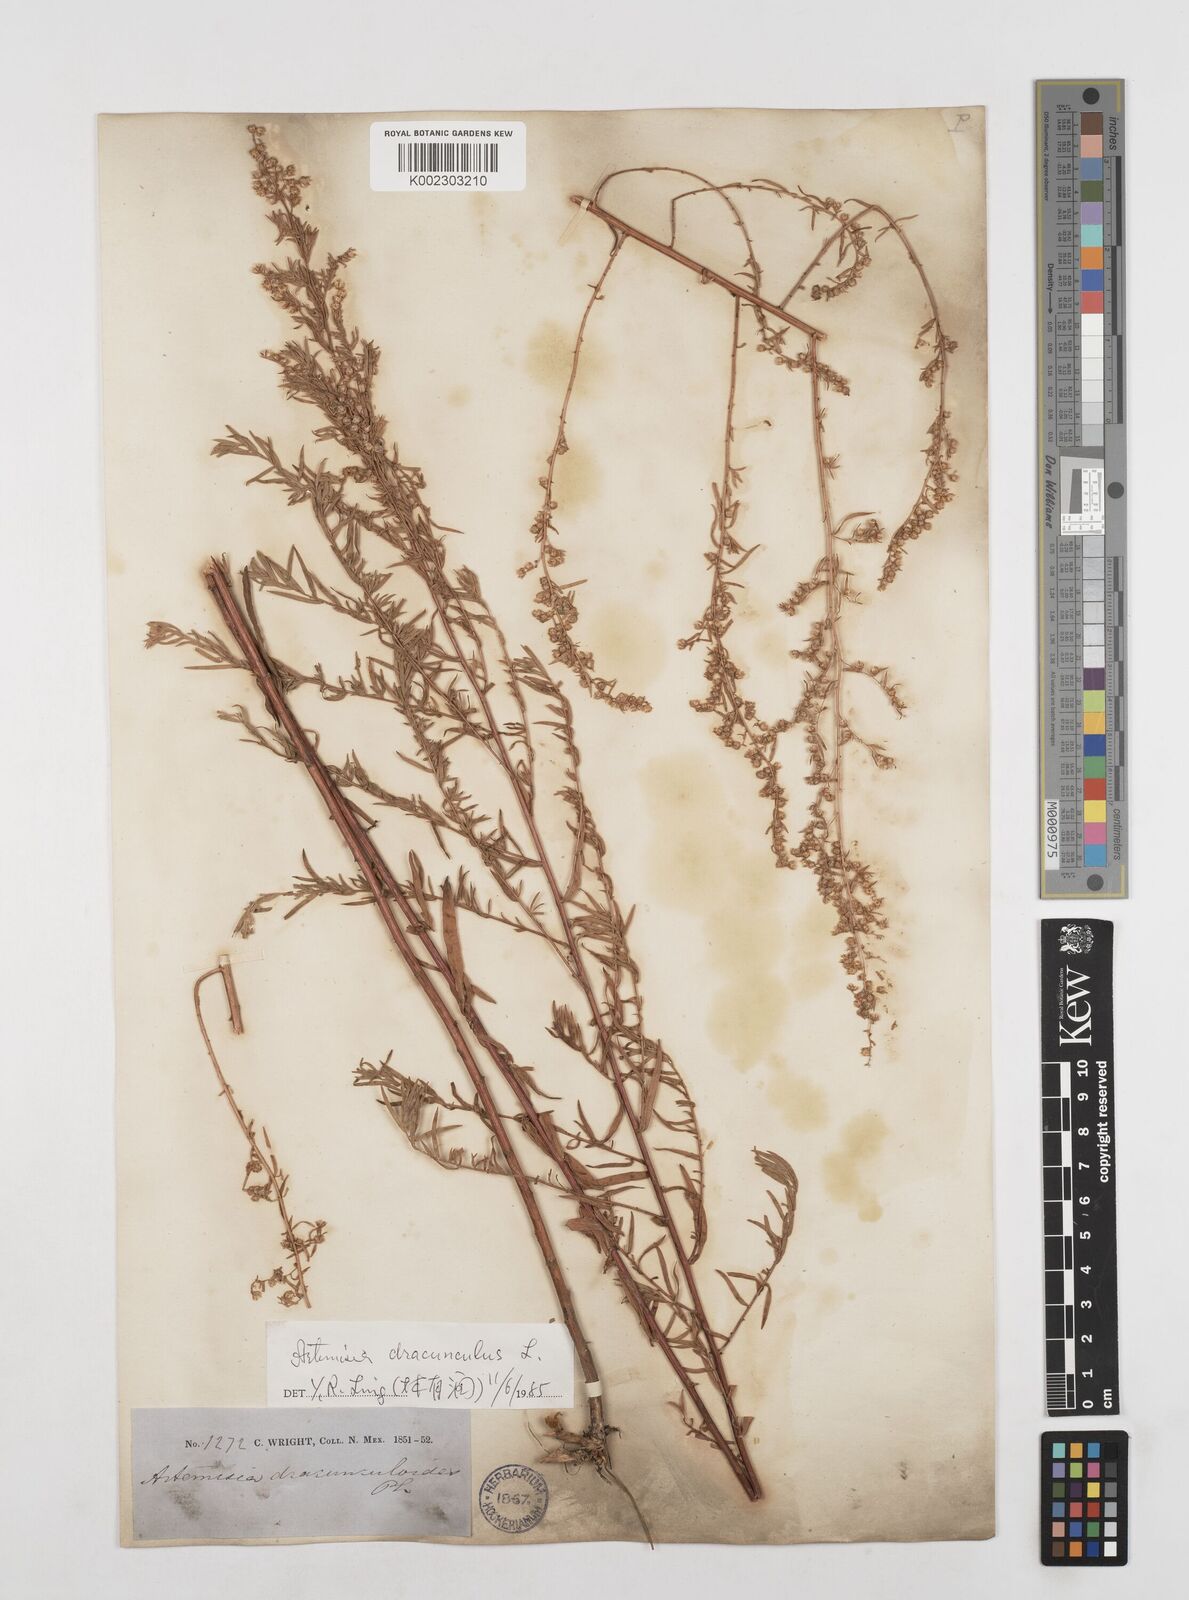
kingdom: Plantae
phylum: Tracheophyta
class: Magnoliopsida
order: Asterales
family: Asteraceae
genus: Artemisia
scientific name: Artemisia dracunculus
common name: Tarragon
